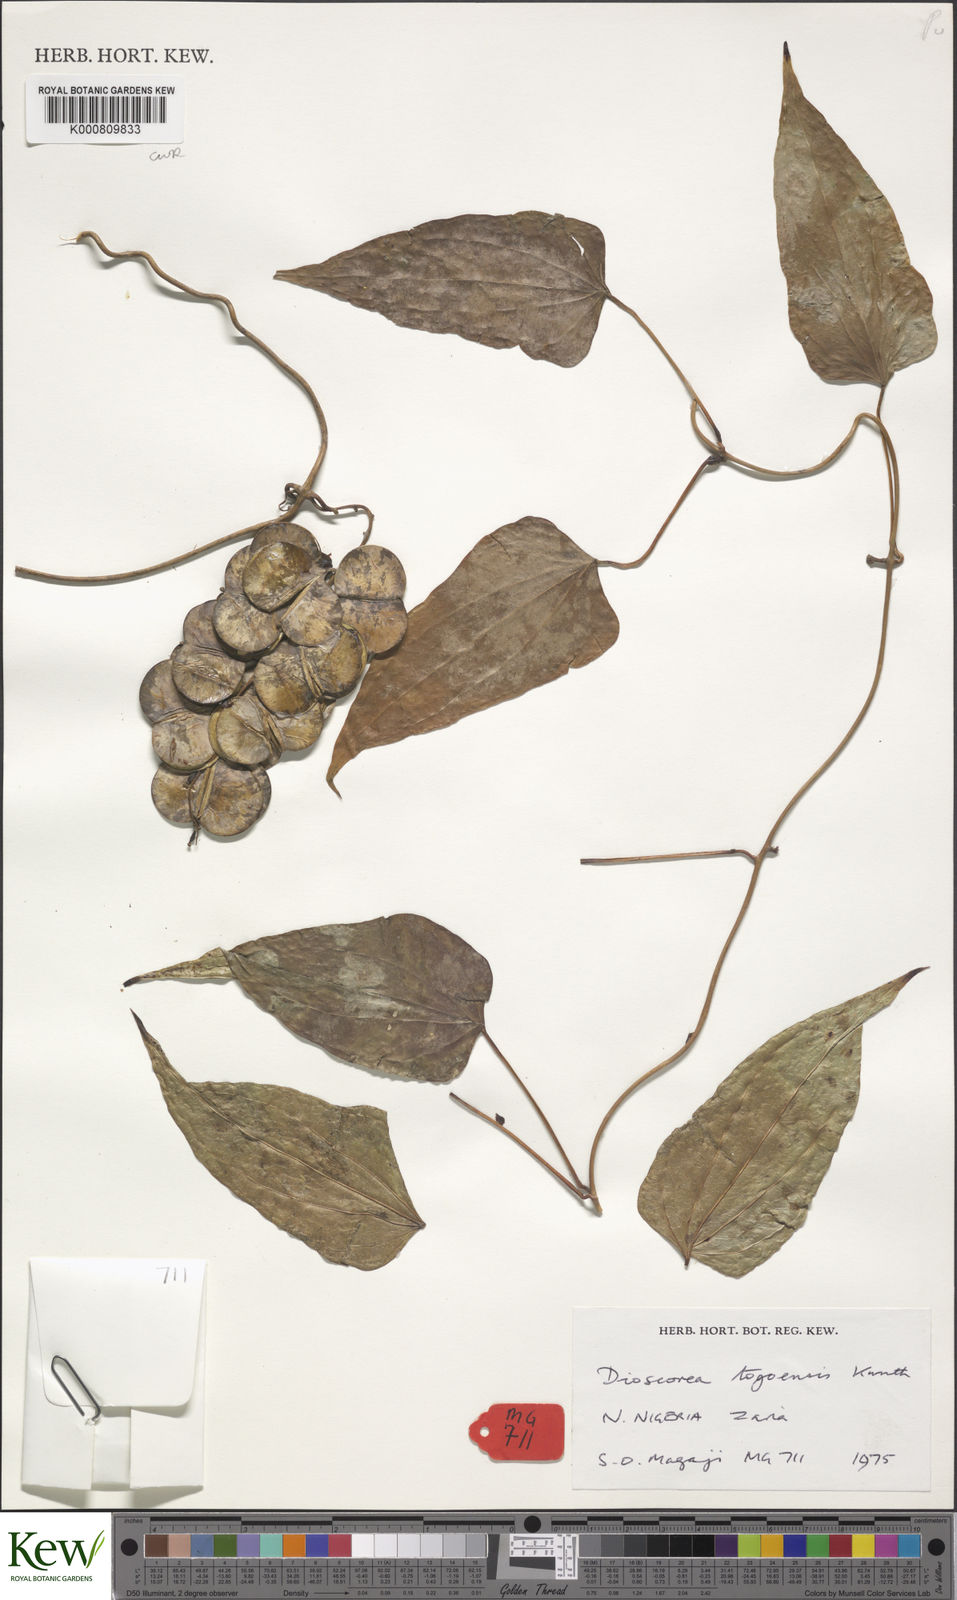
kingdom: Plantae
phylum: Tracheophyta
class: Liliopsida
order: Dioscoreales
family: Dioscoreaceae
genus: Dioscorea
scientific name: Dioscorea togoensis
